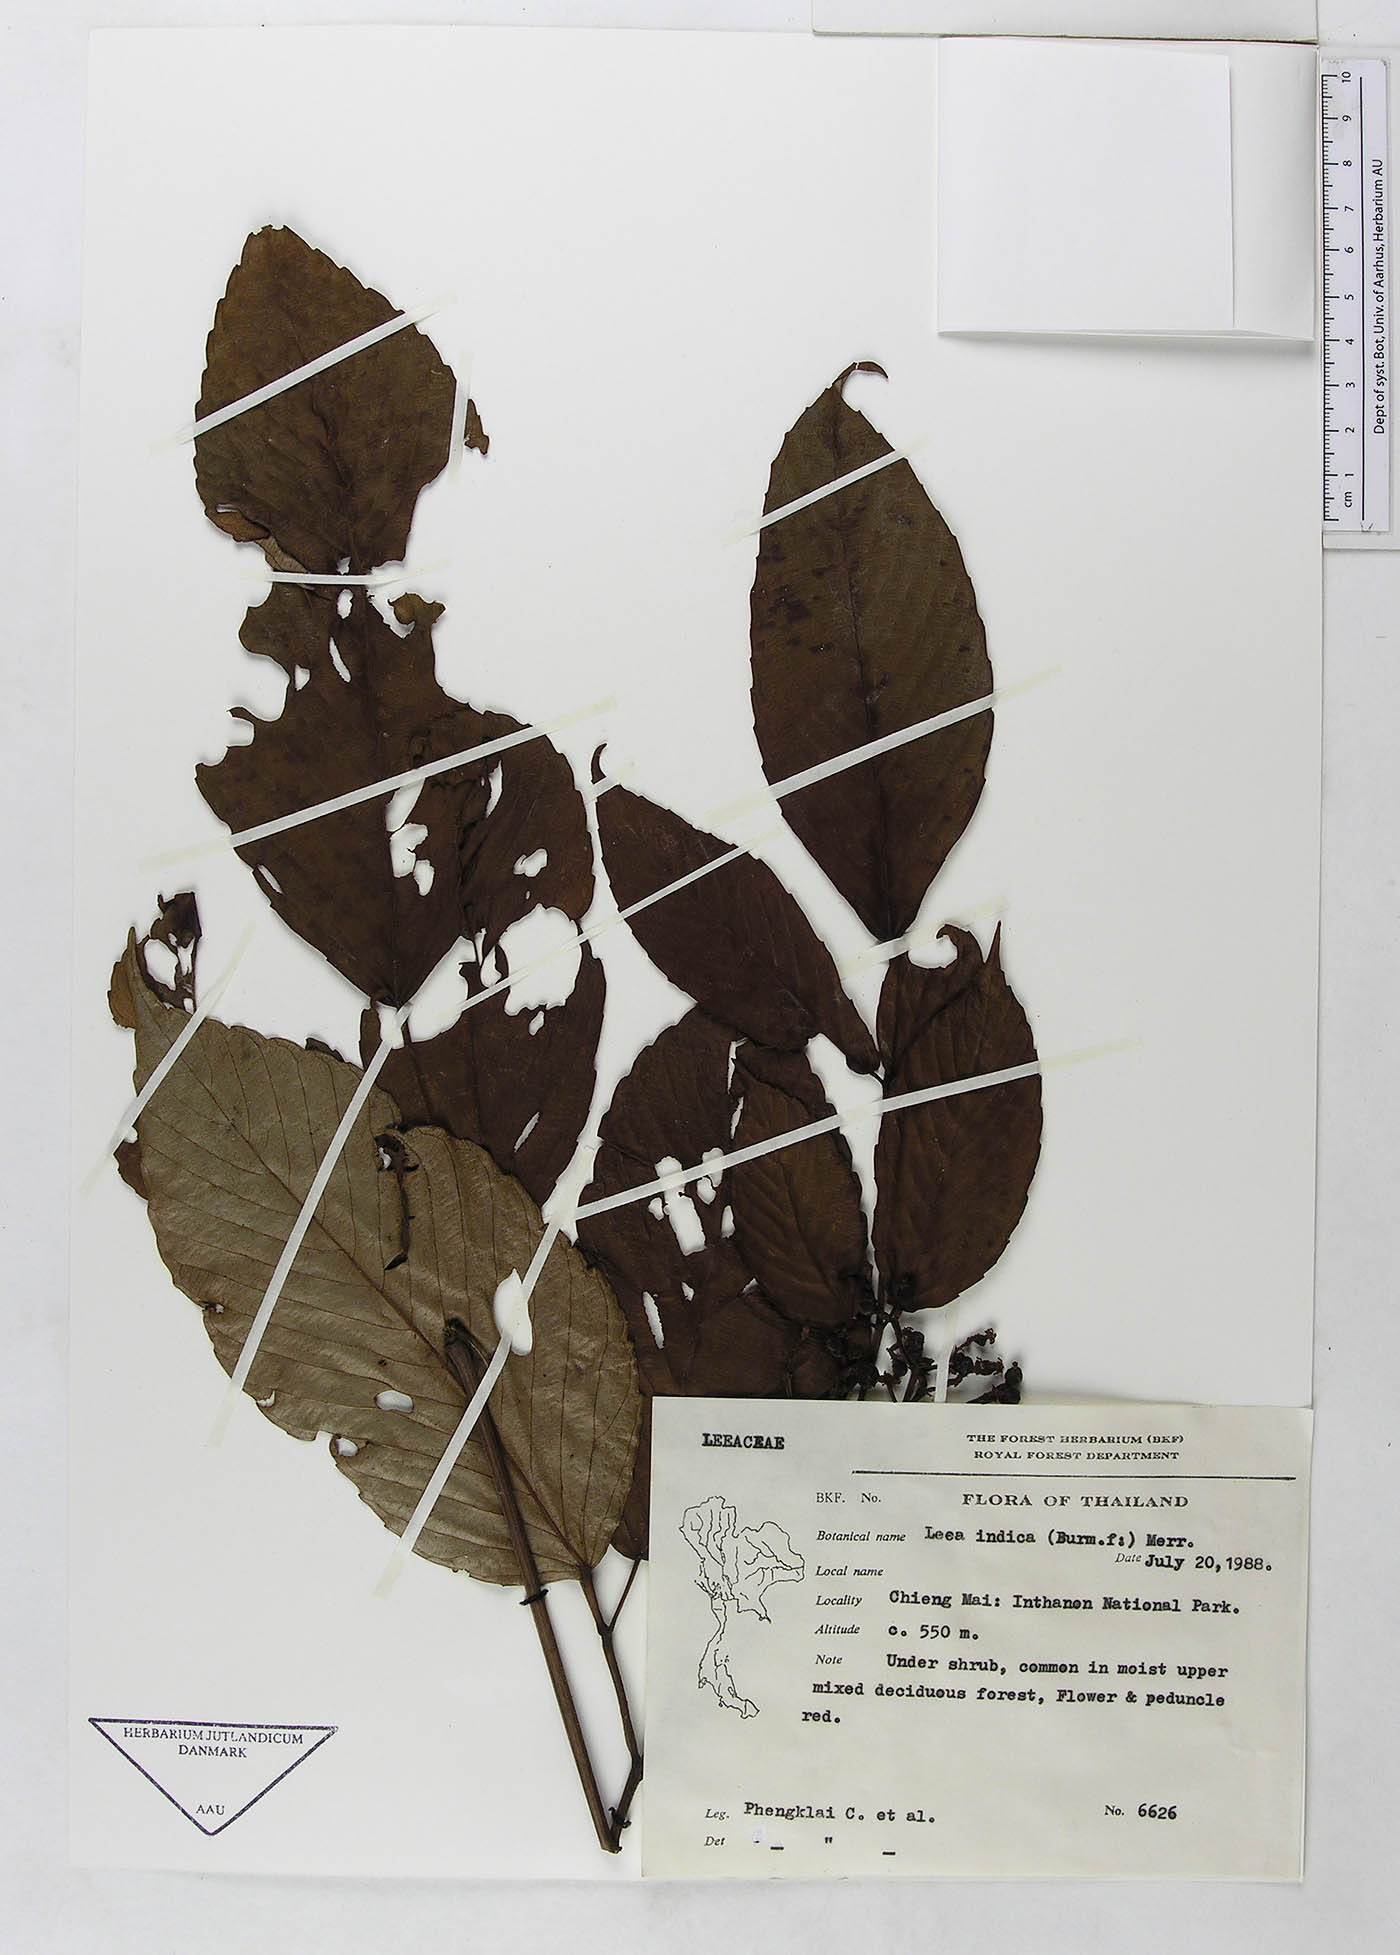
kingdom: Plantae
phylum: Tracheophyta
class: Magnoliopsida
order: Vitales
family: Vitaceae
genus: Leea
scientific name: Leea asiatica
